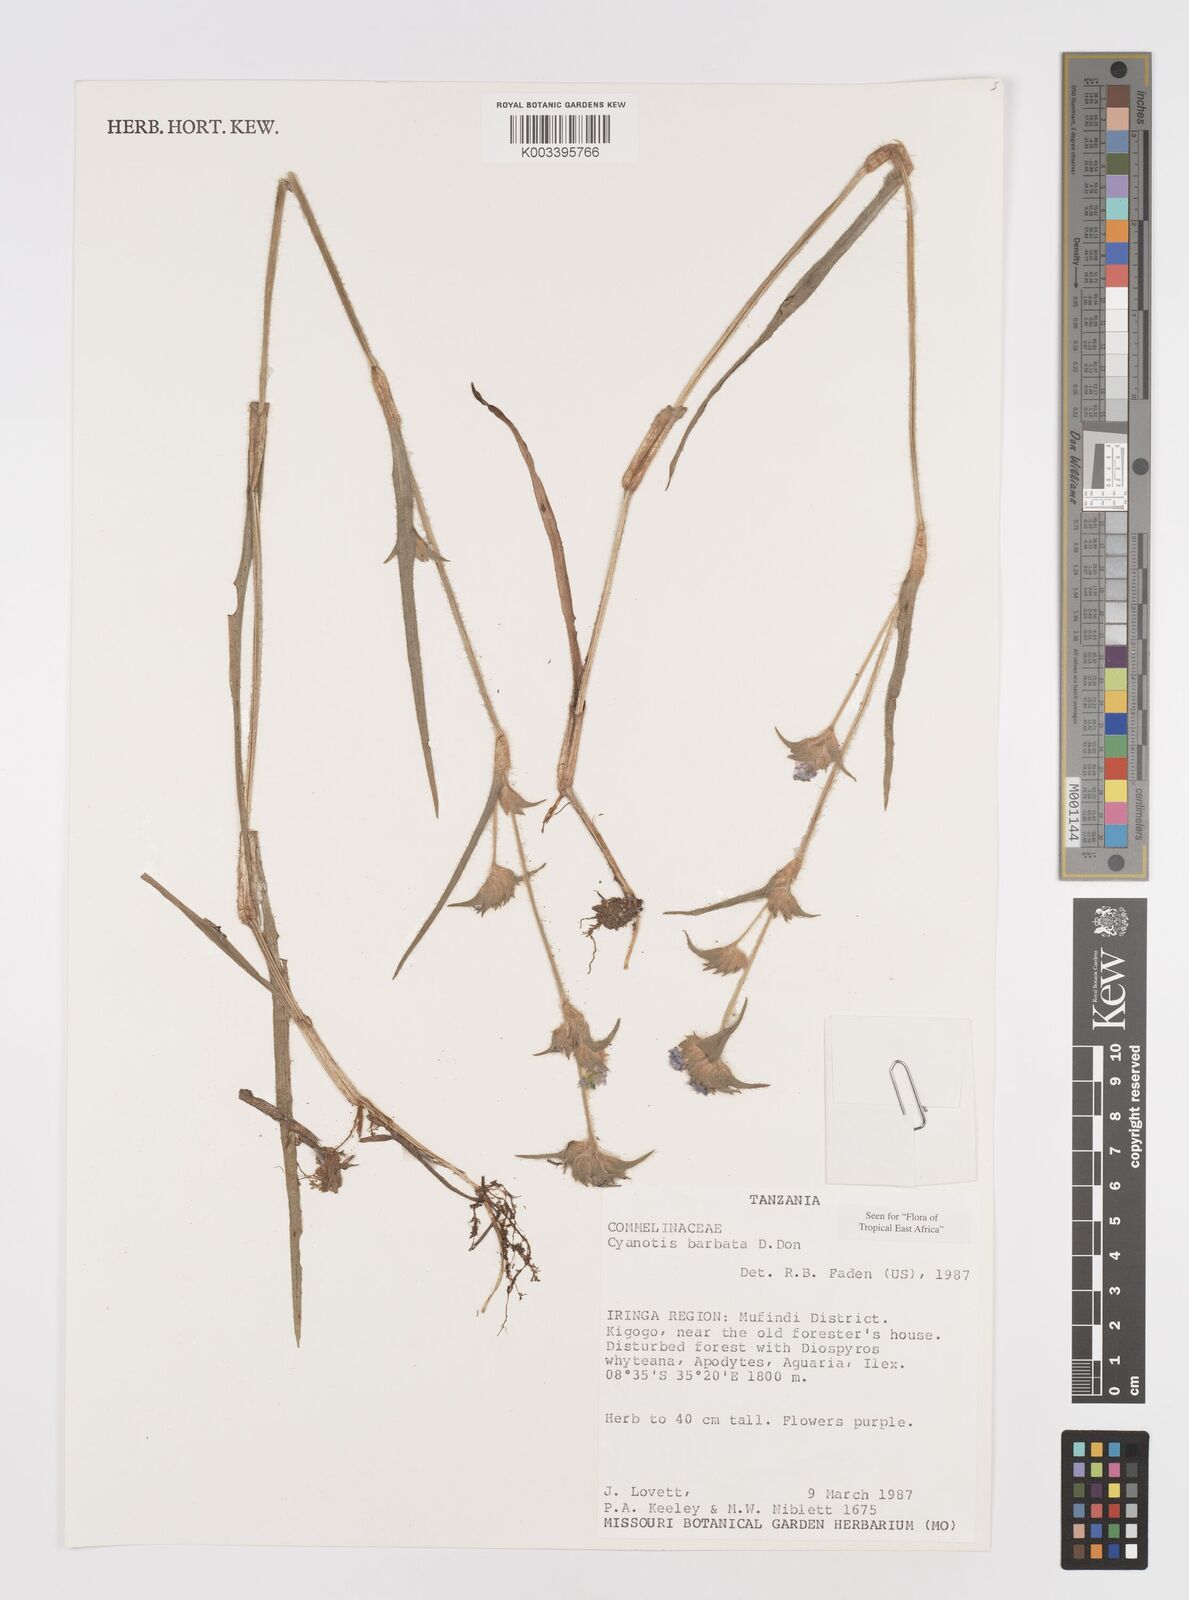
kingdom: Plantae
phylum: Tracheophyta
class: Liliopsida
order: Commelinales
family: Commelinaceae
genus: Cyanotis
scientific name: Cyanotis vaga
